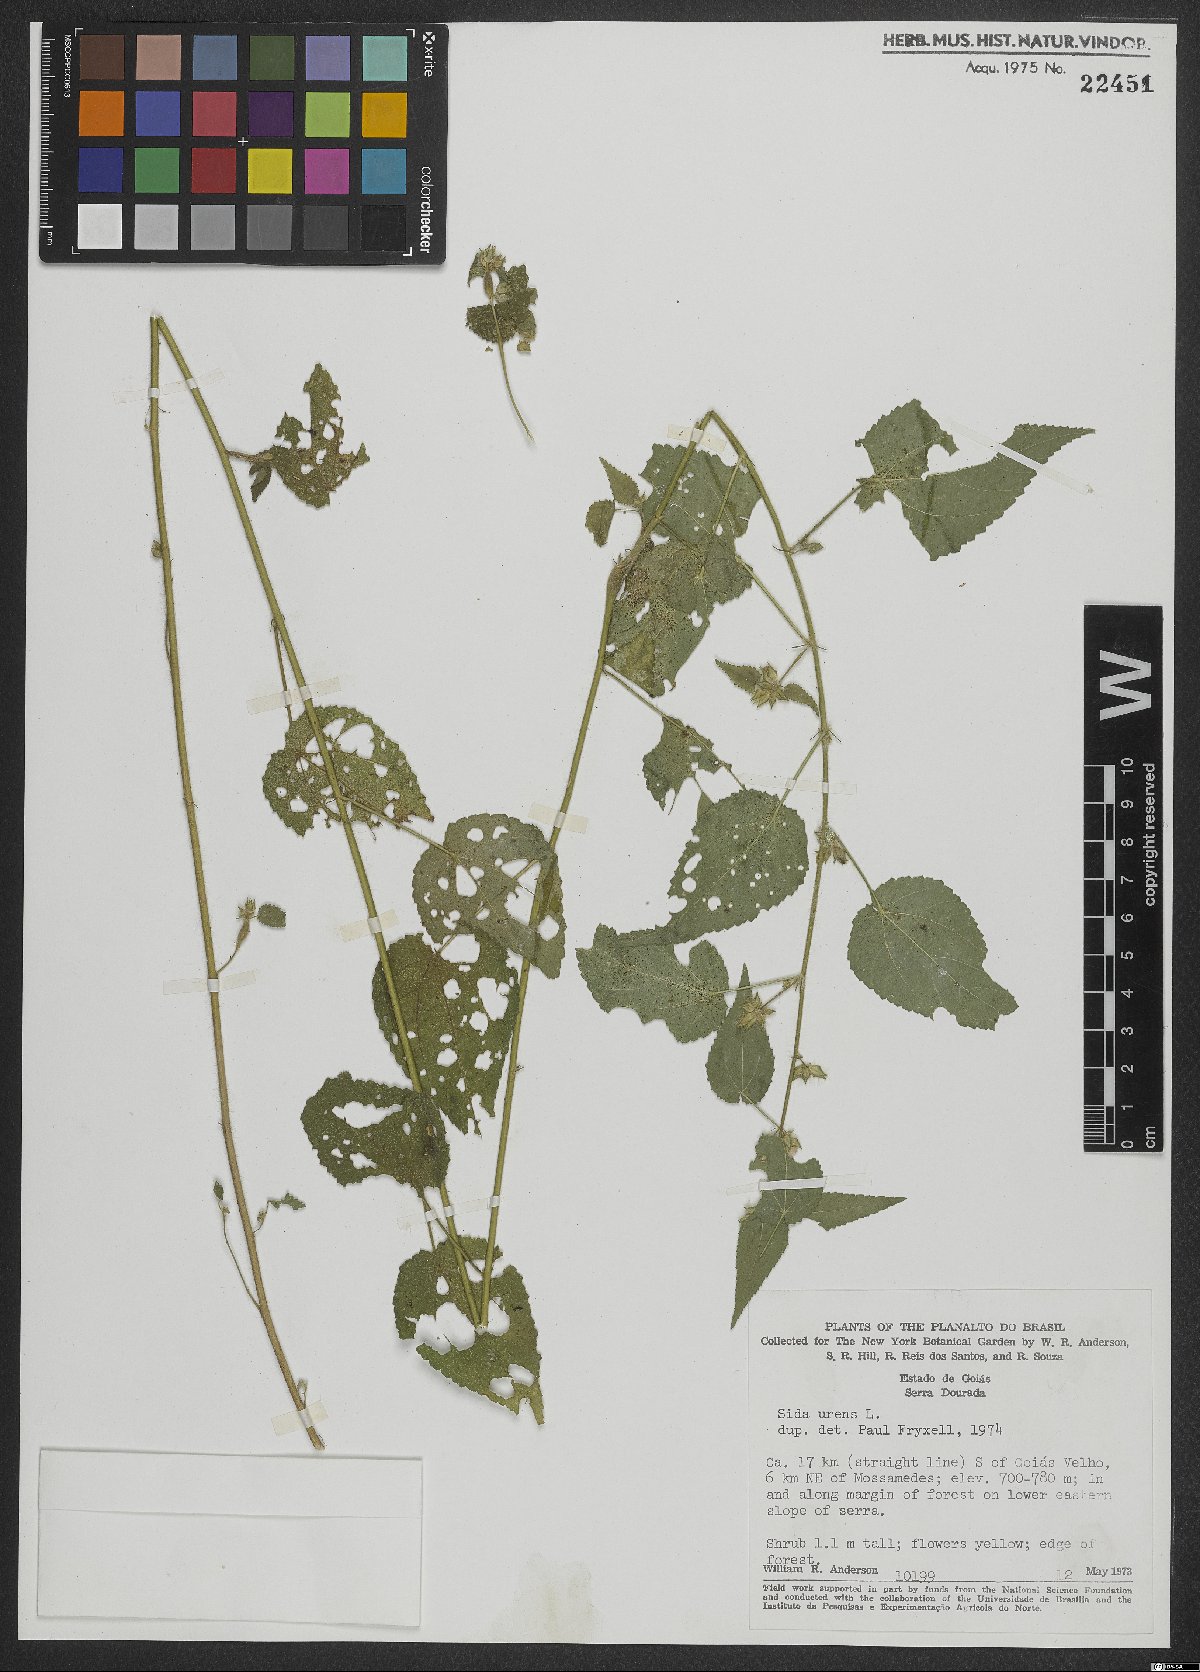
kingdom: Plantae
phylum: Tracheophyta
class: Magnoliopsida
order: Malvales
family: Malvaceae
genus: Sida
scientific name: Sida urens
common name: Tropical fanpetals
